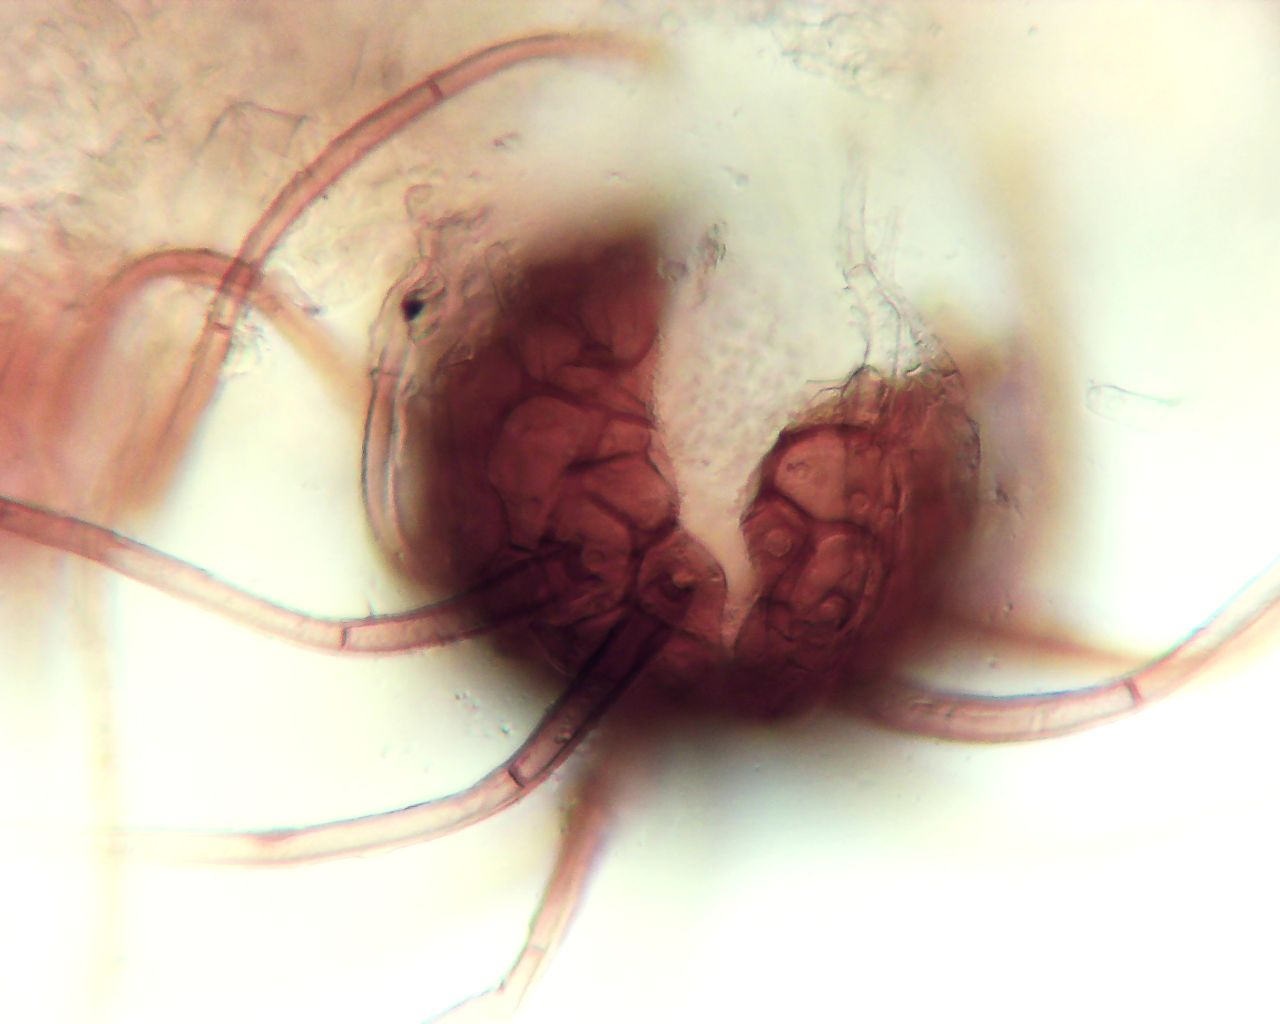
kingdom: Fungi
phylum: Ascomycota
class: Leotiomycetes
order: Helotiales
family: Erysiphaceae
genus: Podosphaera
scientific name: Podosphaera ferruginea
